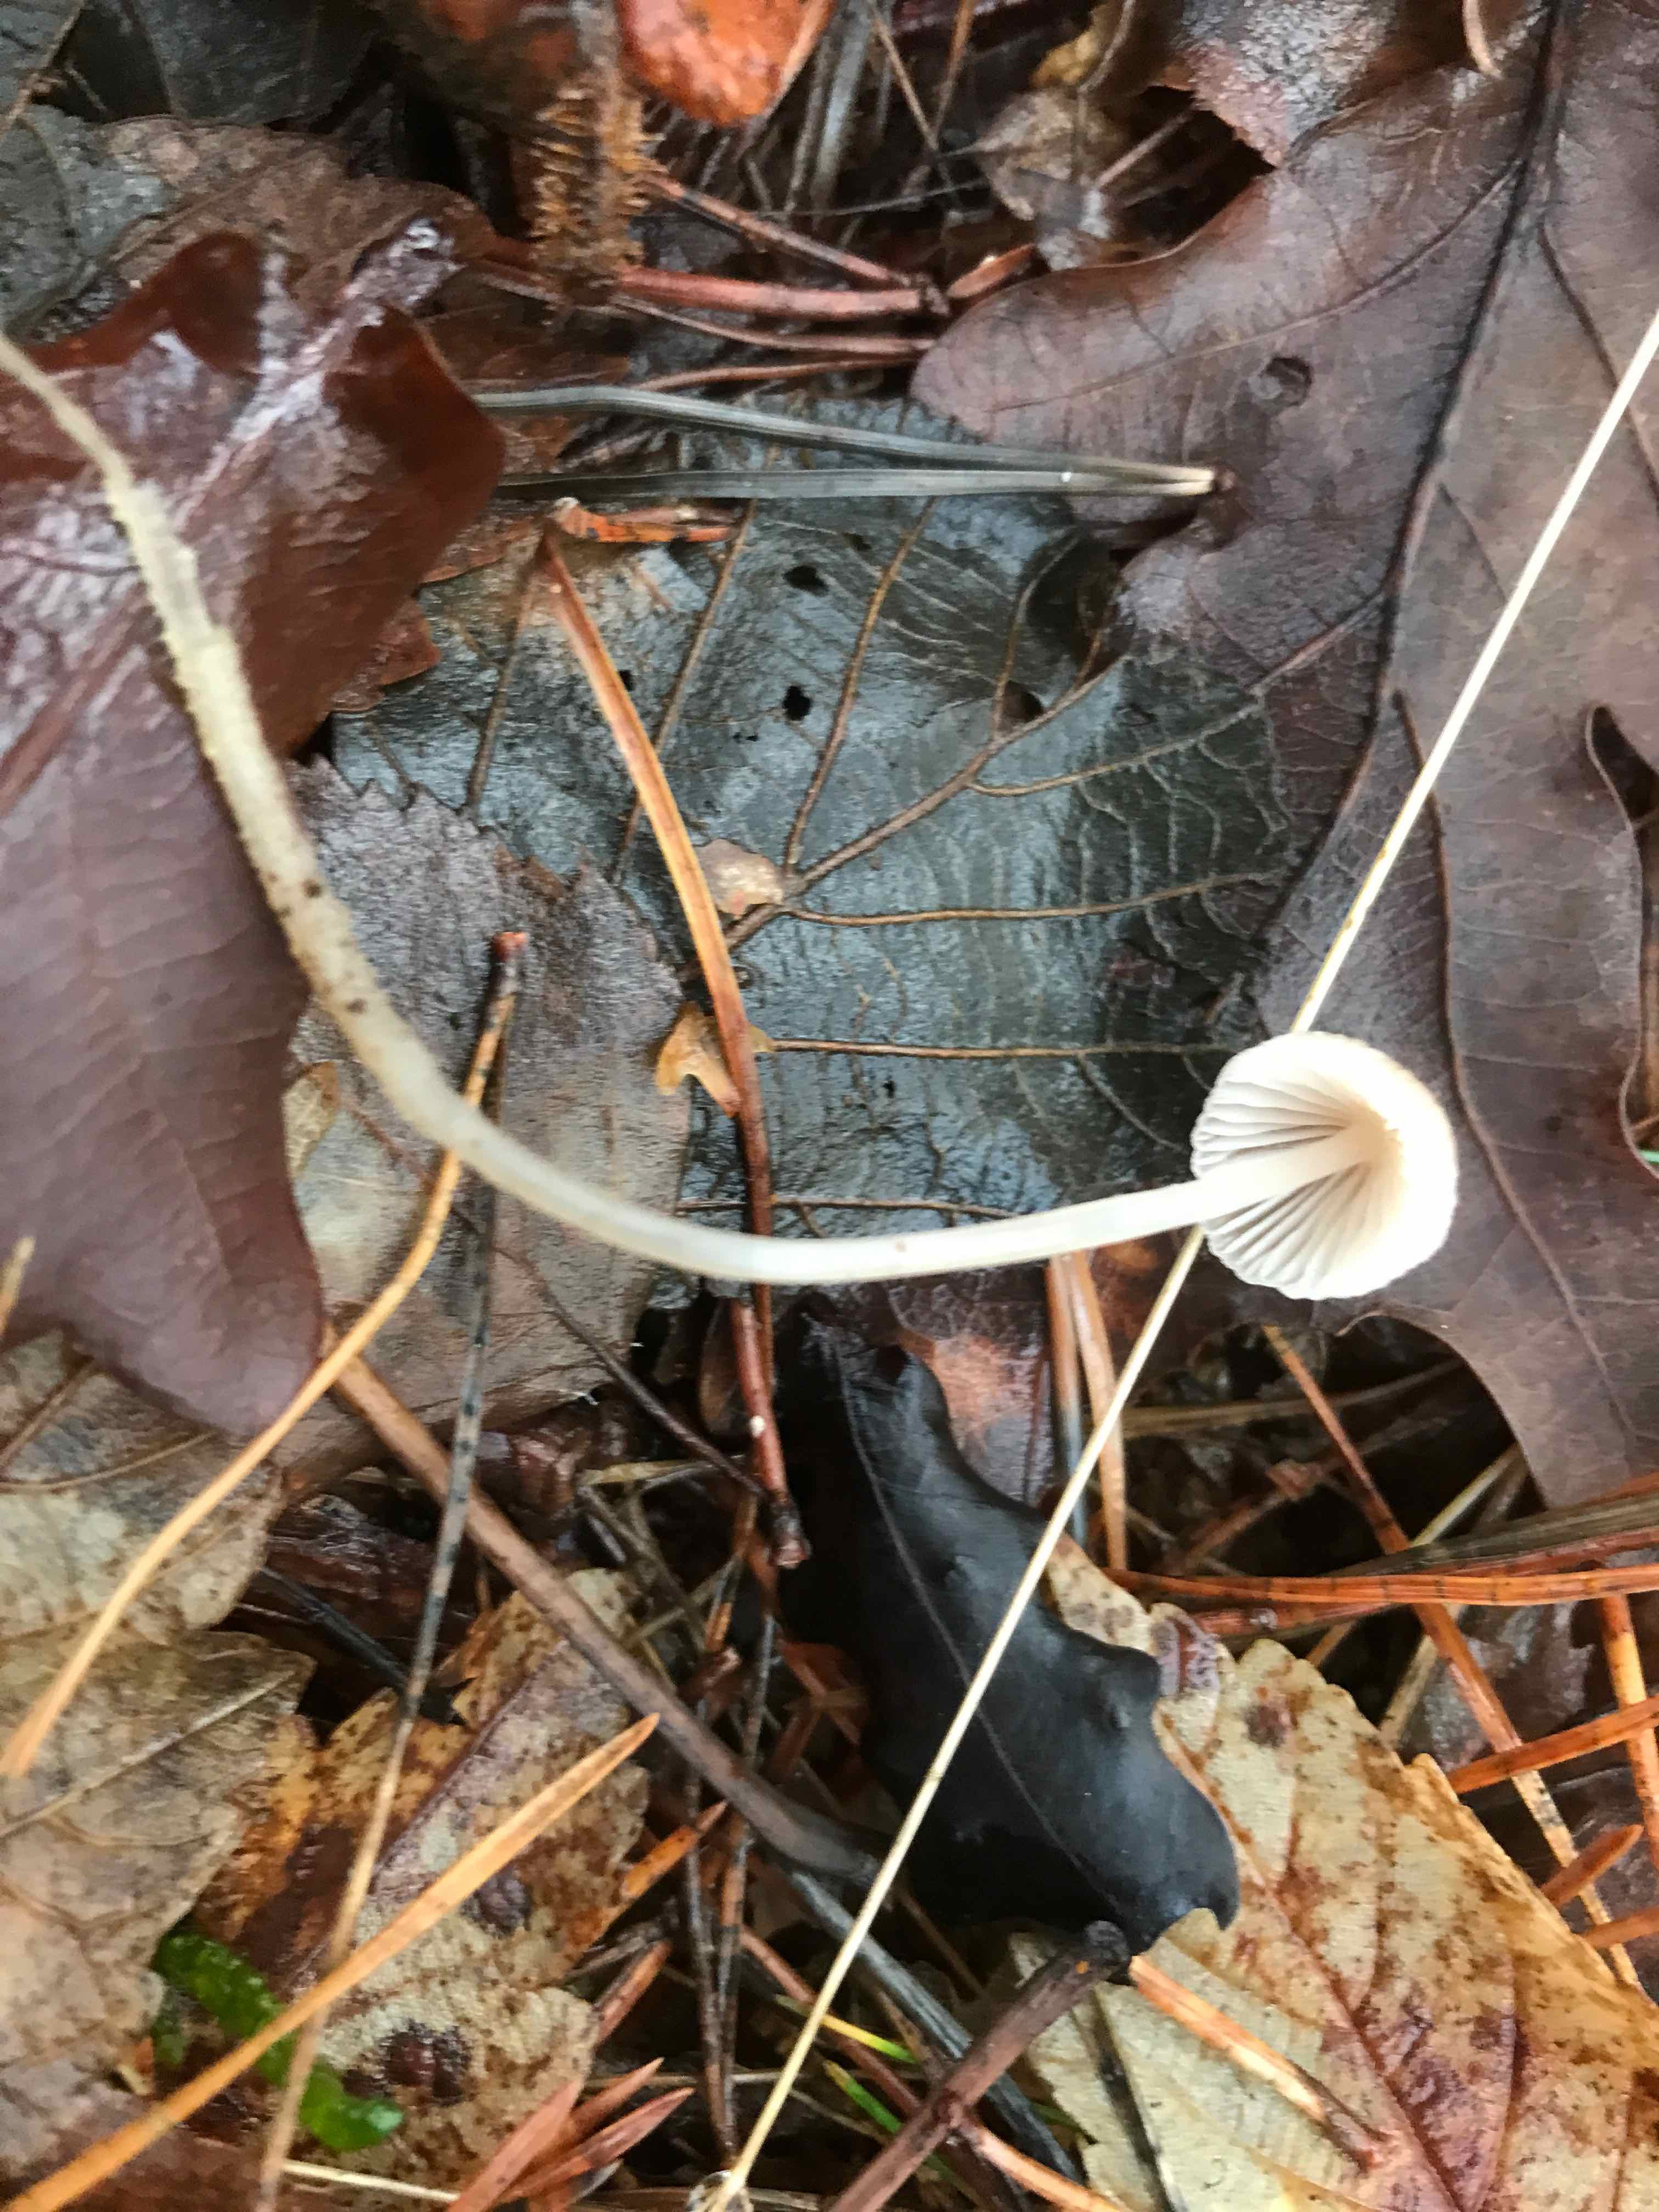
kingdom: Fungi
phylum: Basidiomycota
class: Agaricomycetes
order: Agaricales
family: Mycenaceae
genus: Mycena
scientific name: Mycena
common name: huesvamp
